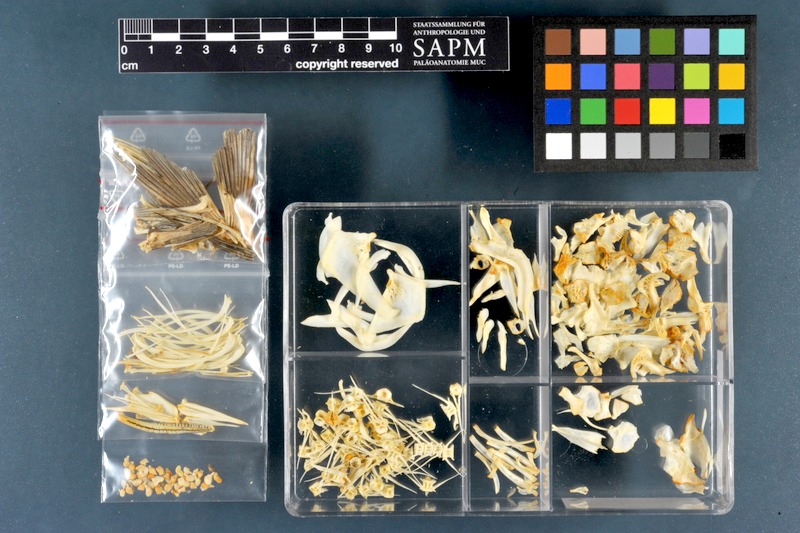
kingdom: Animalia
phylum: Chordata
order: Cypriniformes
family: Cyprinidae
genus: Luciobarbus
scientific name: Luciobarbus xanthopterus
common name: Yellowfin barbel
